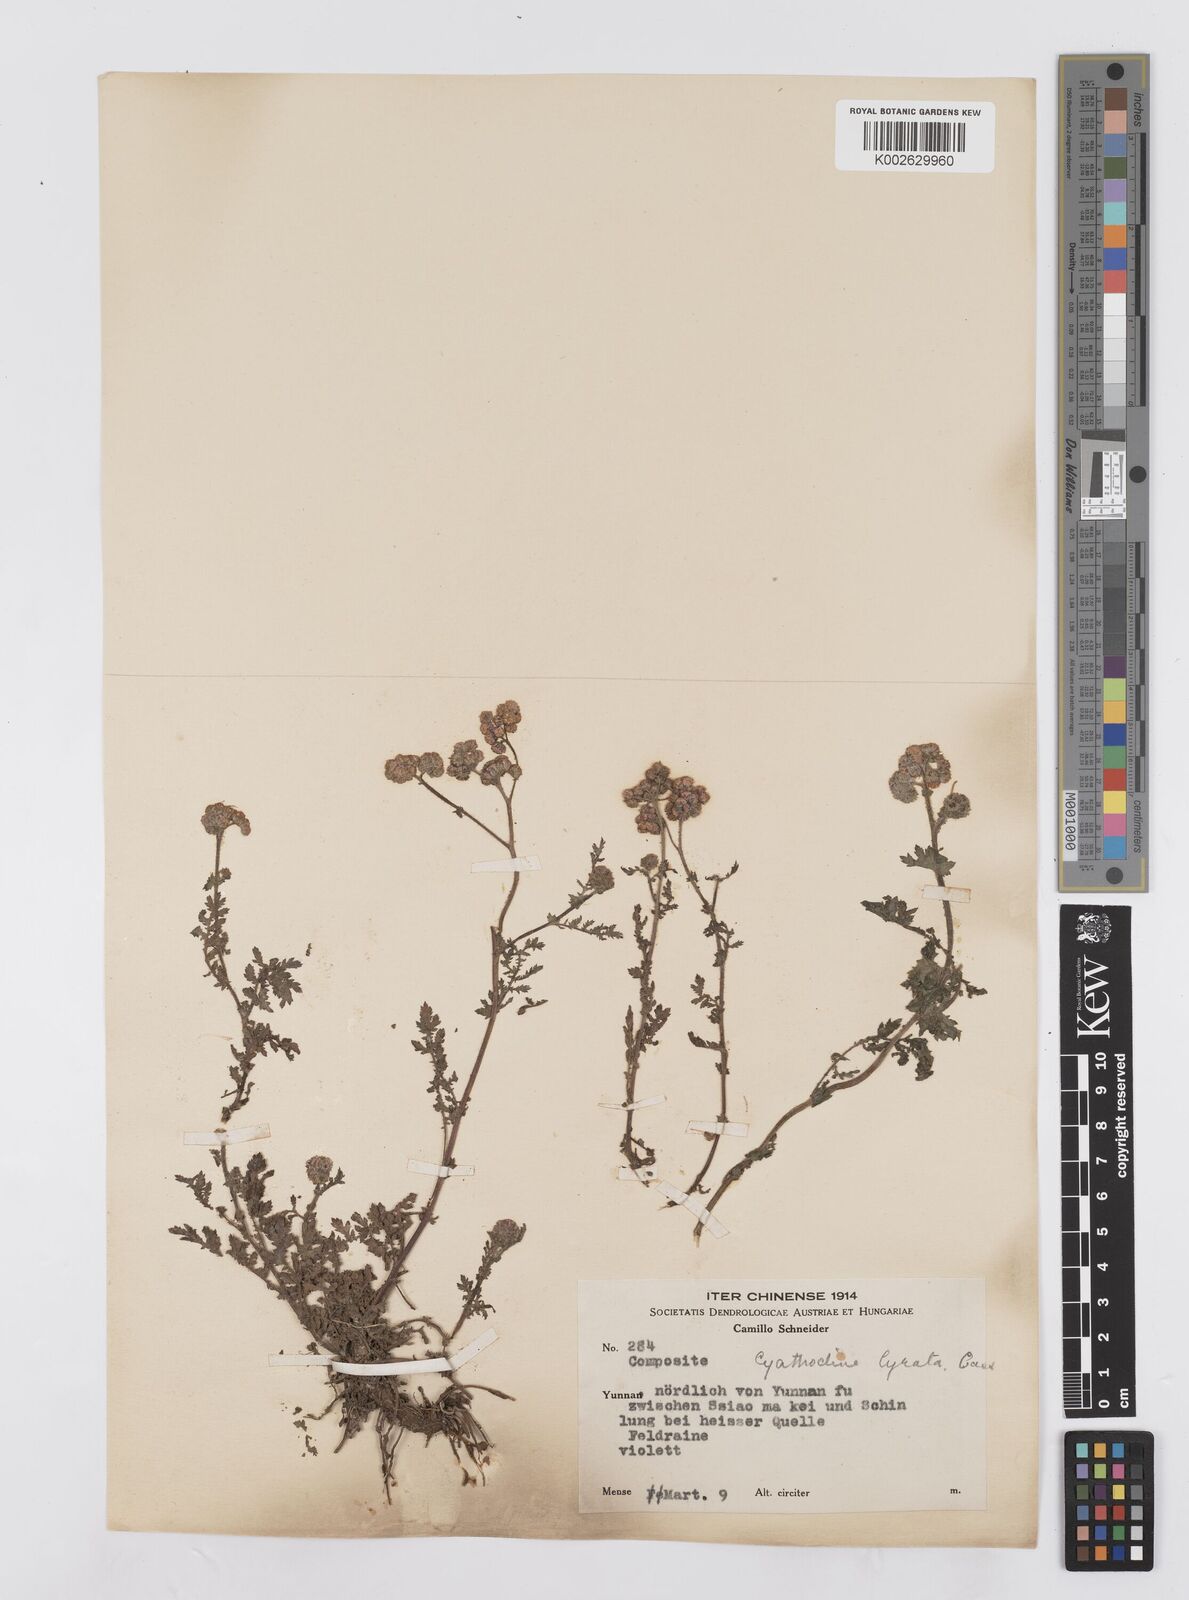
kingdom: Plantae
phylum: Tracheophyta
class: Magnoliopsida
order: Asterales
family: Asteraceae
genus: Cyathocline
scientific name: Cyathocline purpurea
